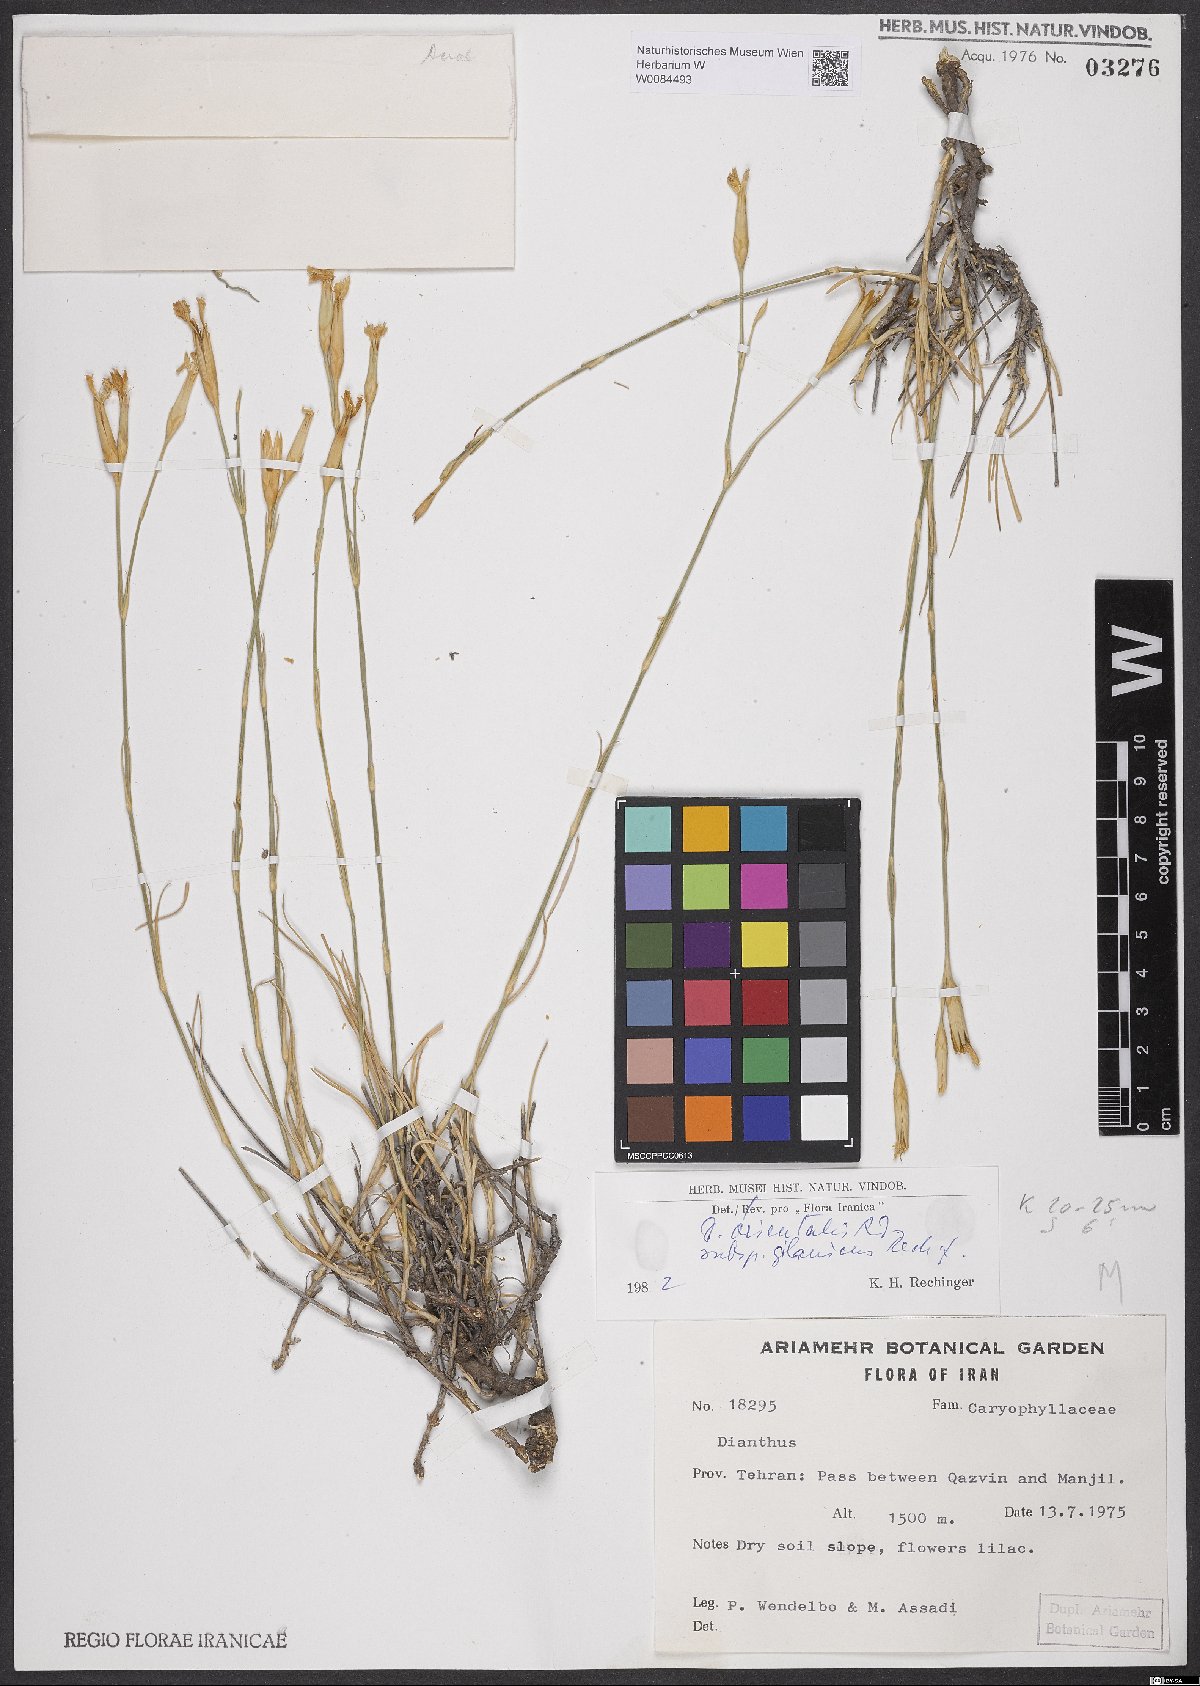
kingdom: Plantae
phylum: Tracheophyta
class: Magnoliopsida
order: Caryophyllales
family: Caryophyllaceae
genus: Dianthus
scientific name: Dianthus orientalis
